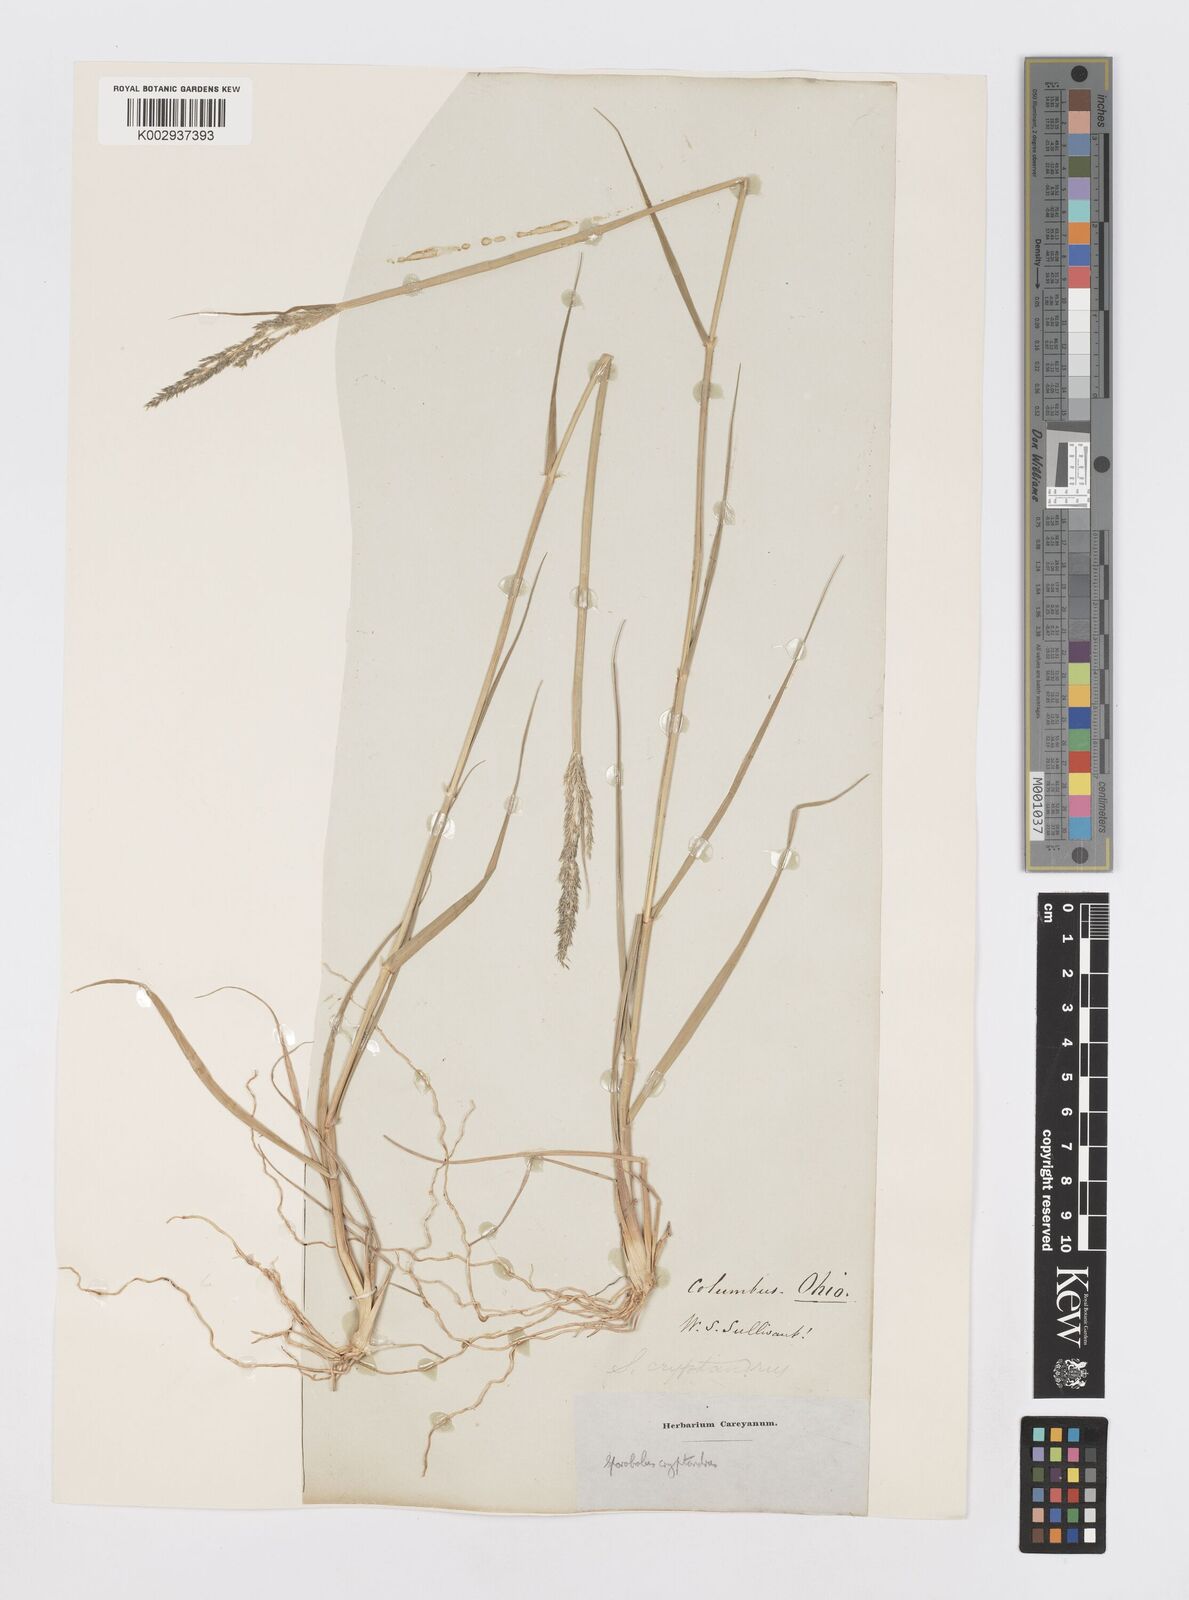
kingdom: Plantae
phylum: Tracheophyta
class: Liliopsida
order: Poales
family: Poaceae
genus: Sporobolus
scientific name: Sporobolus cryptandrus
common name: Sand dropseed
